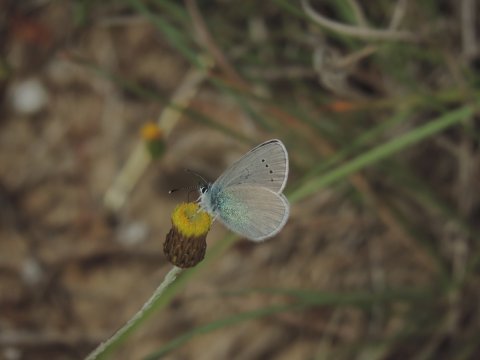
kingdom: Animalia
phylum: Arthropoda
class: Insecta
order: Lepidoptera
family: Lycaenidae
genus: Glaucopsyche
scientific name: Glaucopsyche alexis
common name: Green-underside Blue
